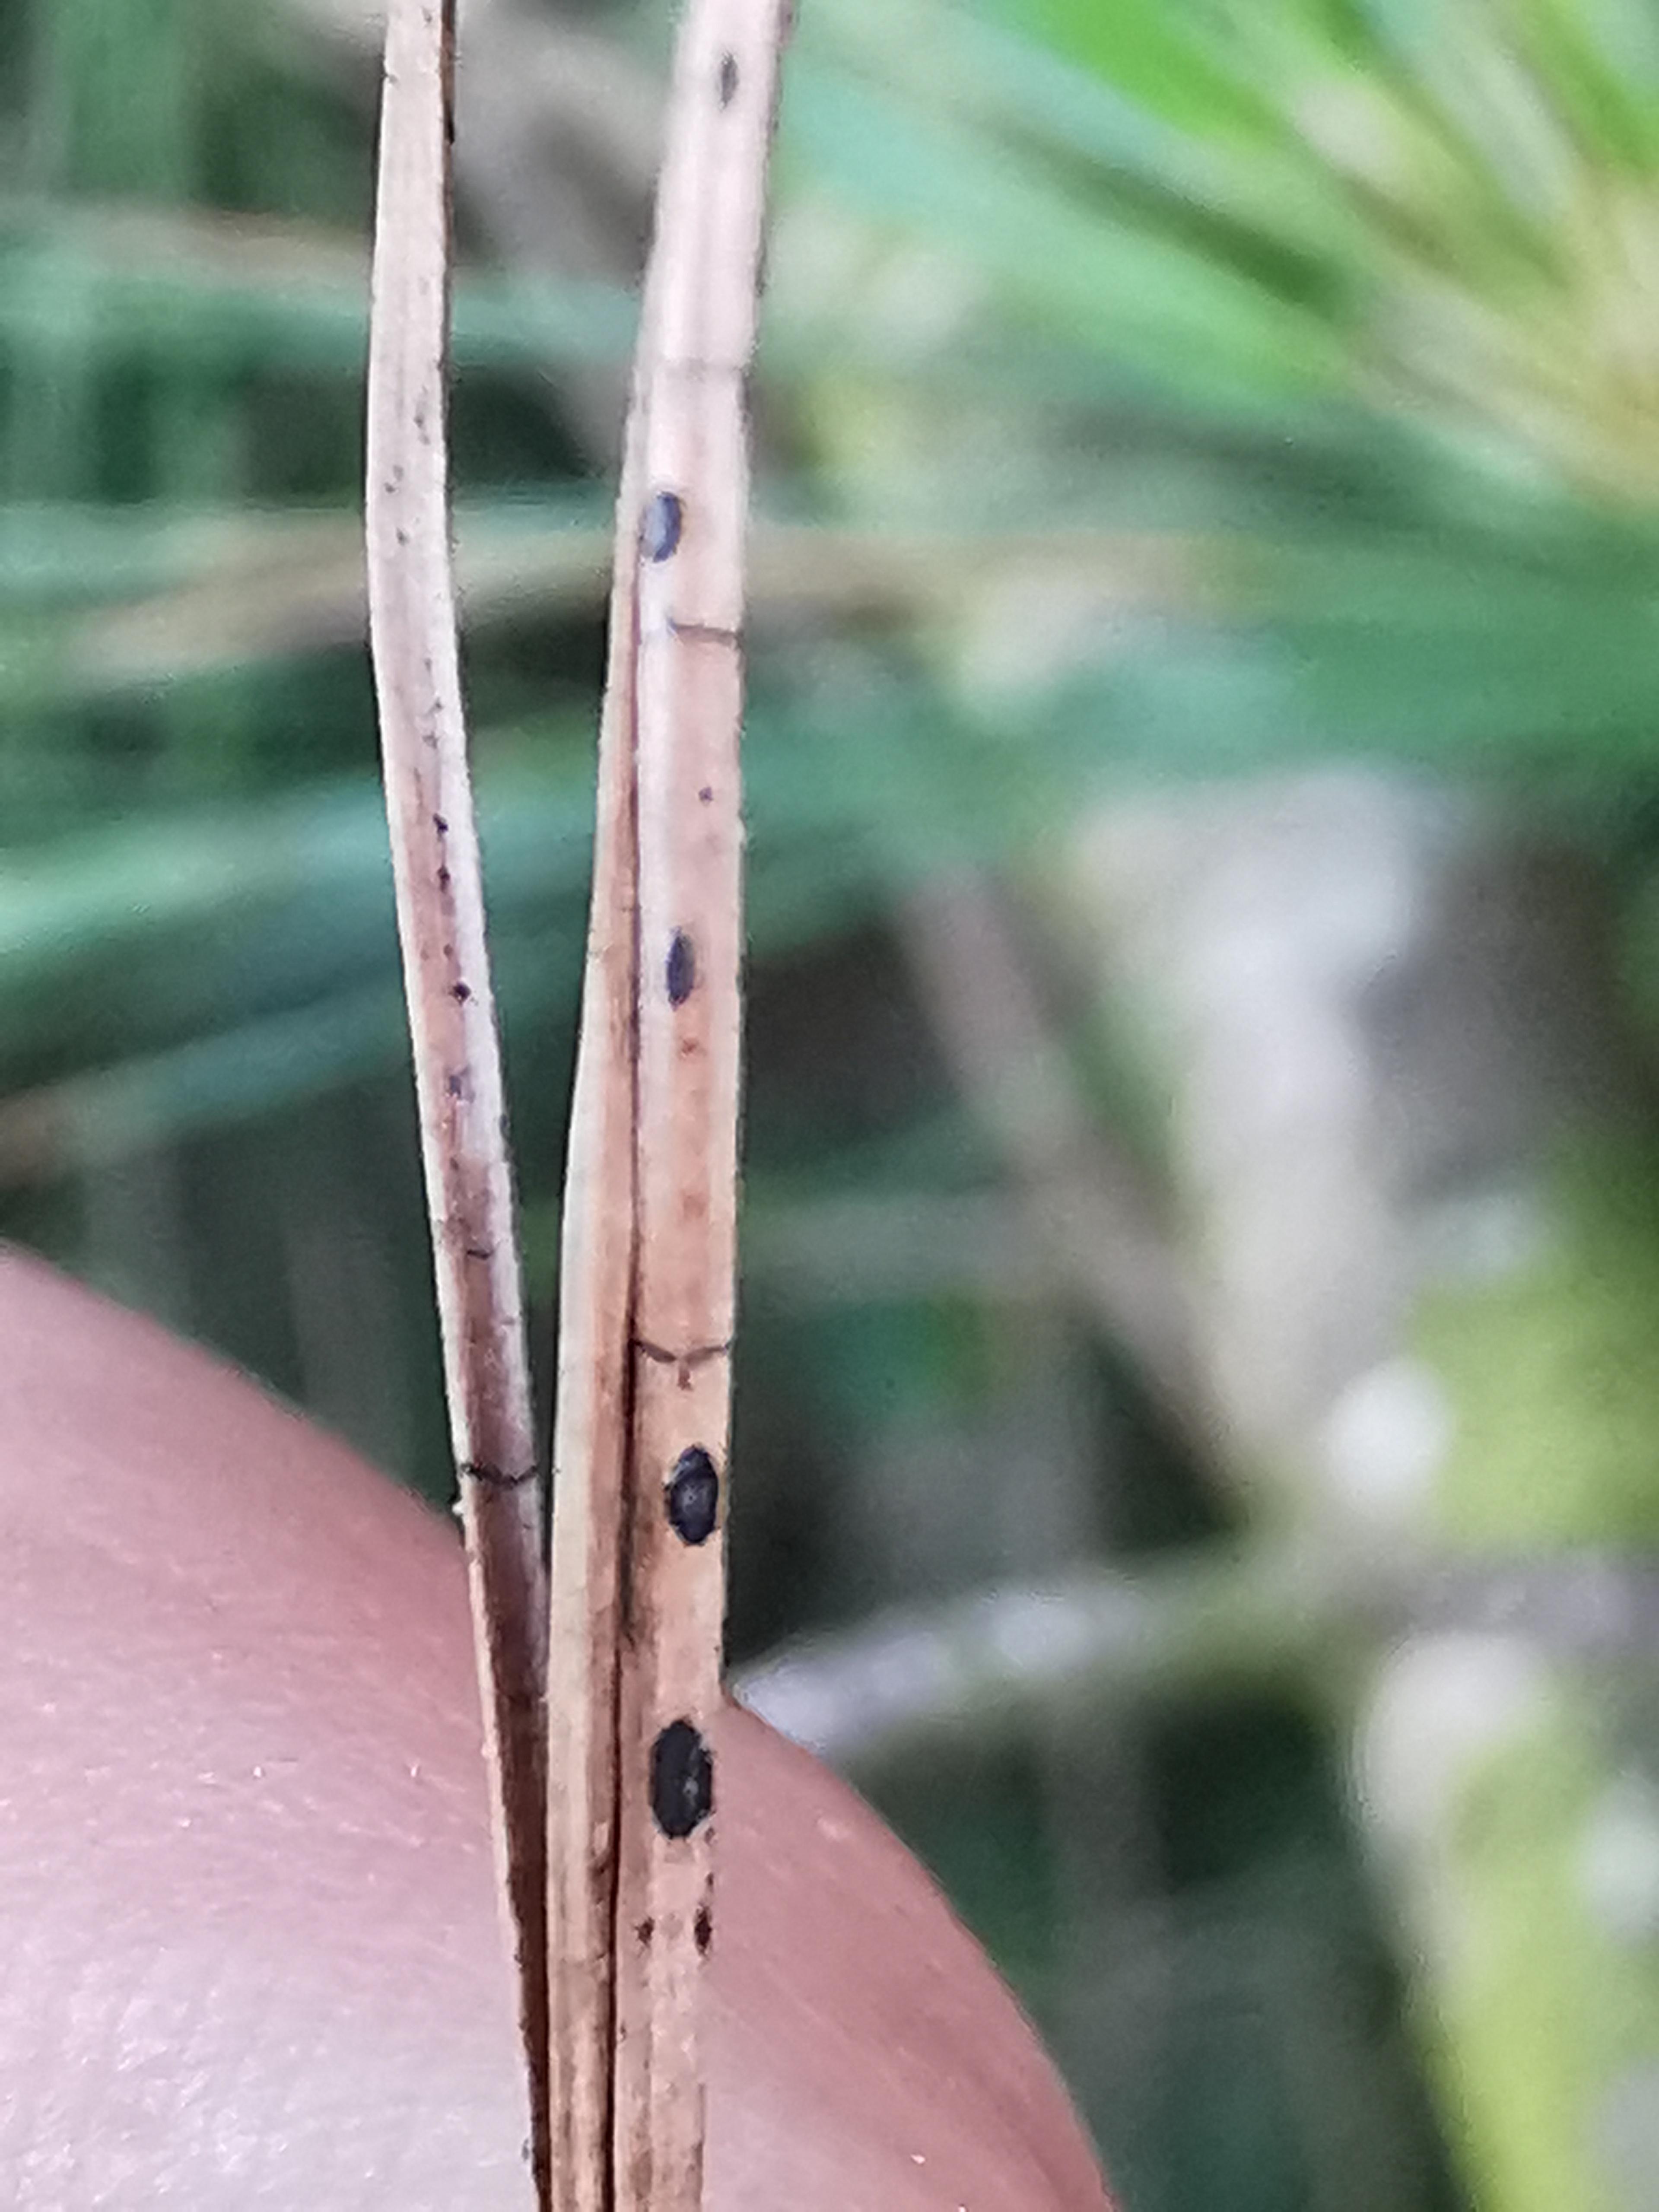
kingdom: Fungi
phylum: Ascomycota
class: Leotiomycetes
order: Rhytismatales
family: Rhytismataceae
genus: Lophodermium
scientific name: Lophodermium pinastri
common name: fyrre-fureplet
